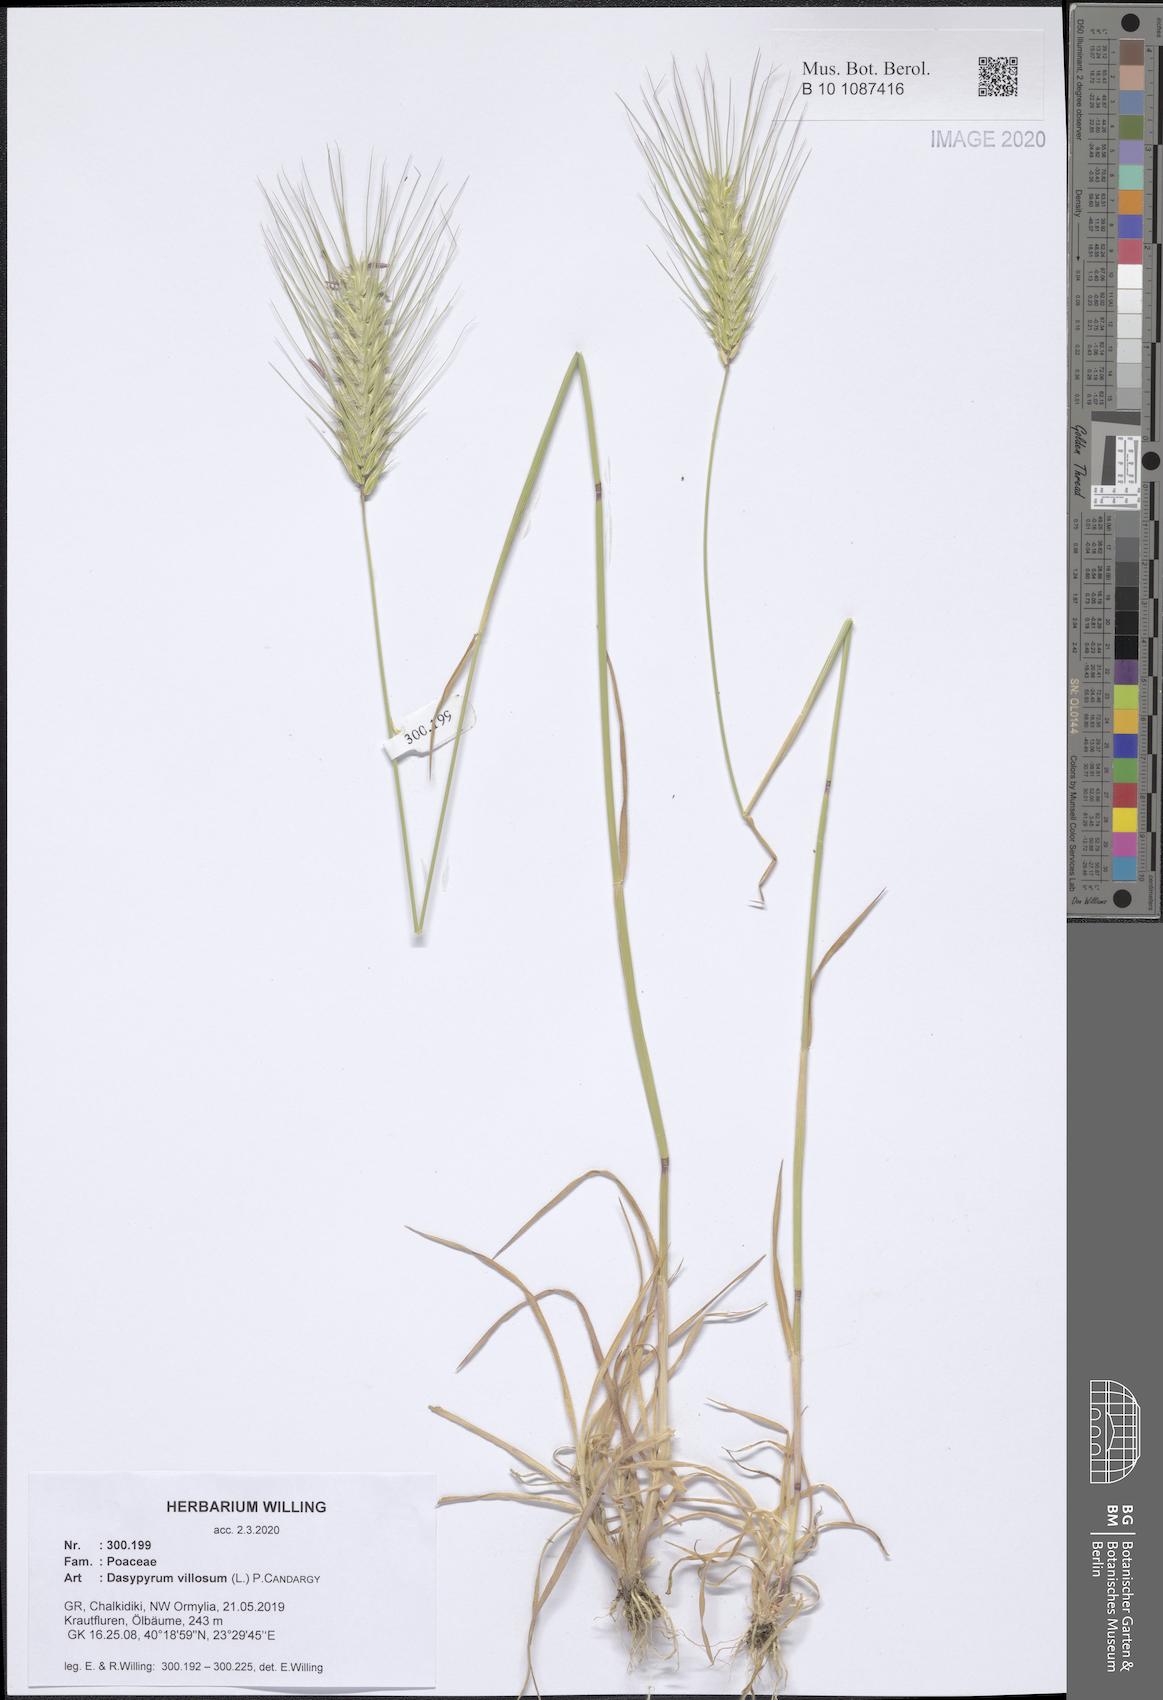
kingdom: Plantae
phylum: Tracheophyta
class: Liliopsida
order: Poales
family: Poaceae
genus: Dasypyrum
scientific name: Dasypyrum villosum
